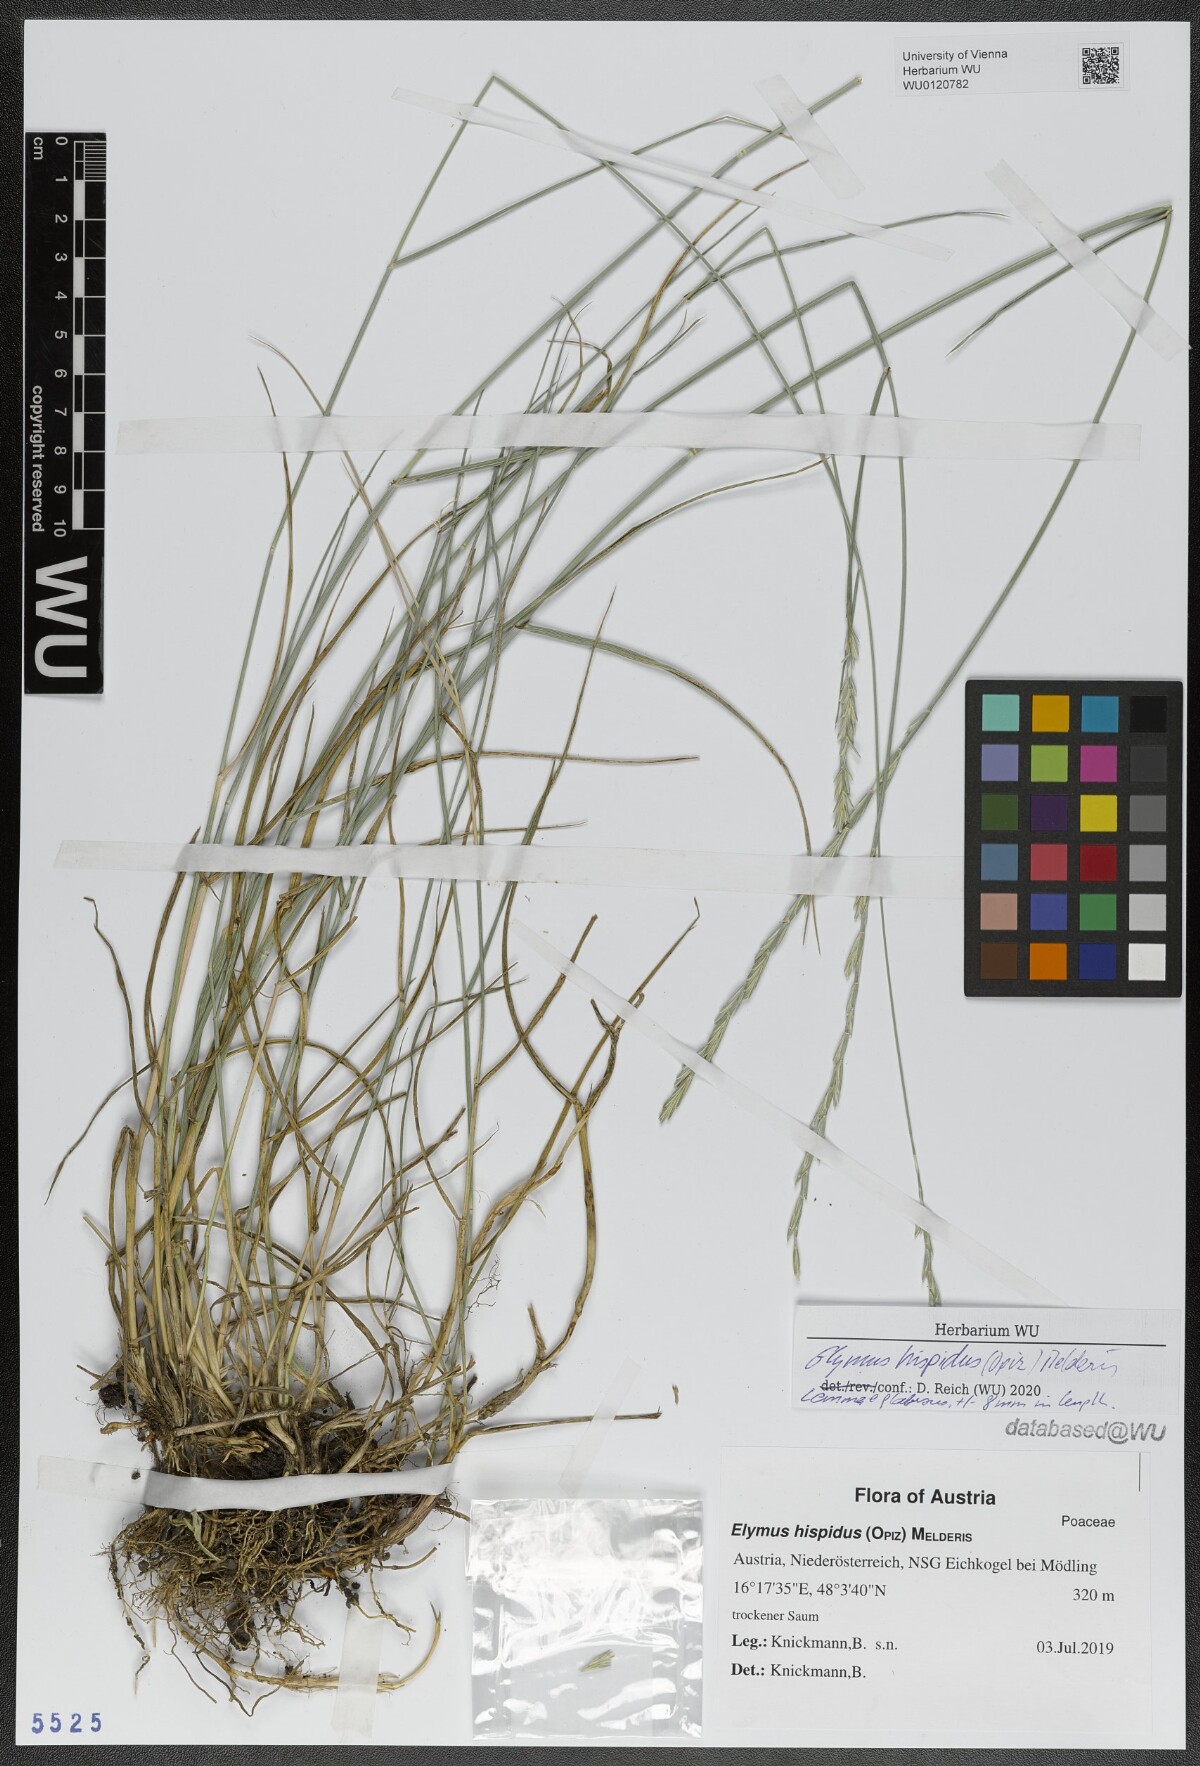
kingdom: Plantae
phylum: Tracheophyta
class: Liliopsida
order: Poales
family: Poaceae
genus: Thinopyrum
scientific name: Thinopyrum intermedium
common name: Intermediate wheatgrass
